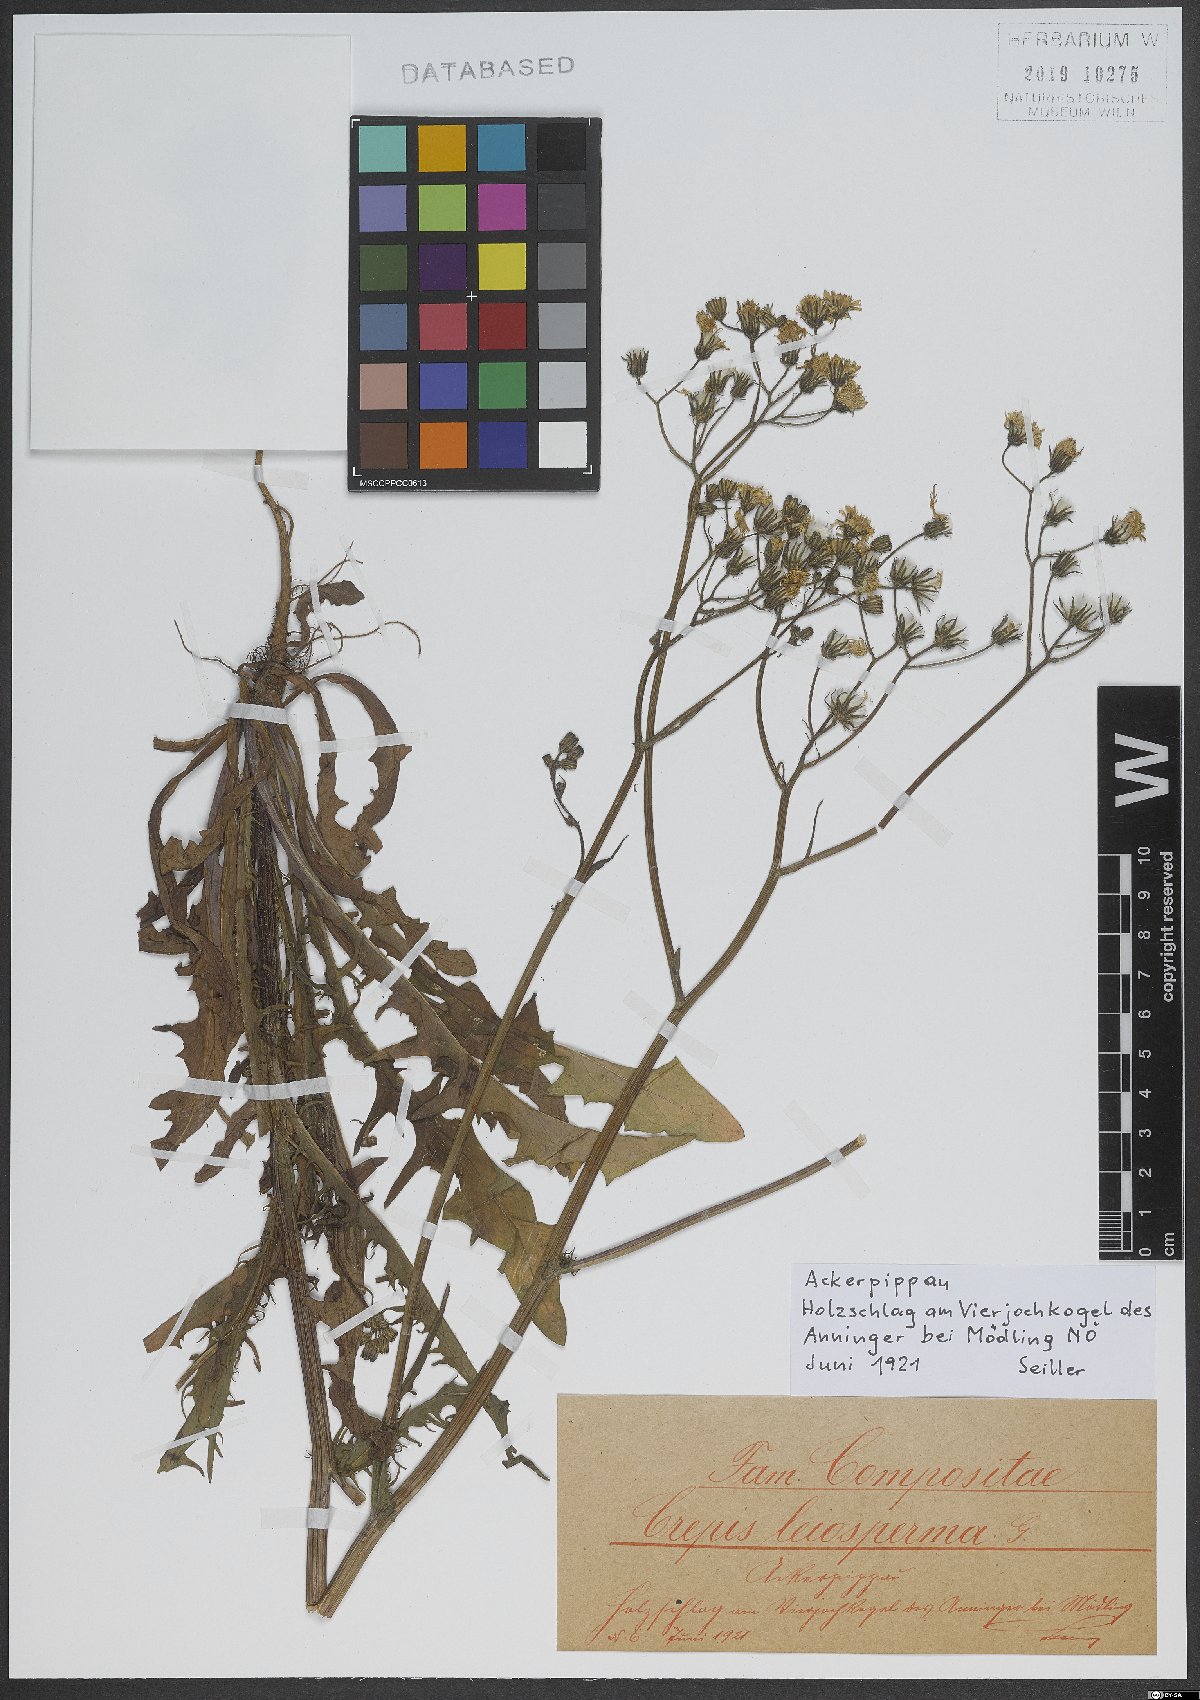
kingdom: Plantae
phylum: Tracheophyta
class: Magnoliopsida
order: Asterales
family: Asteraceae
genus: Crepis
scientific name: Crepis capillaris
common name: Smooth hawksbeard
